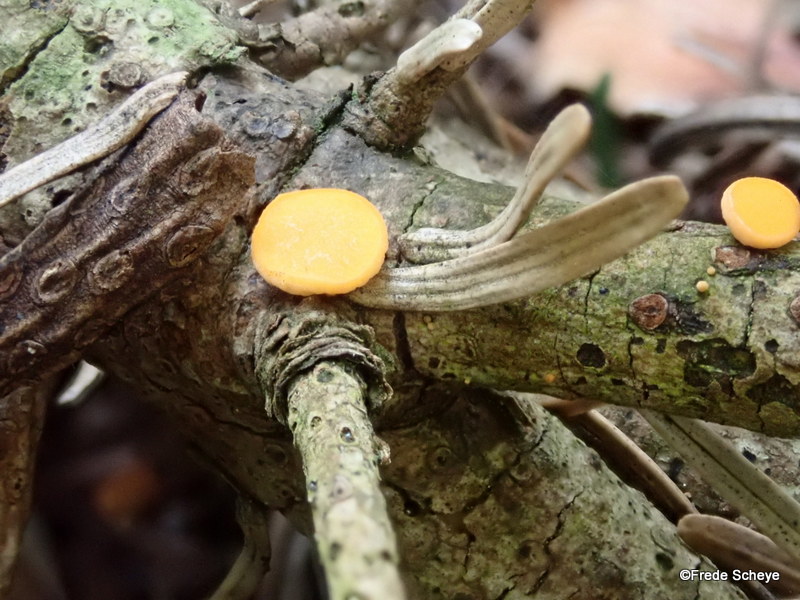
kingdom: Fungi
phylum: Ascomycota
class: Pezizomycetes
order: Pezizales
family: Sarcoscyphaceae
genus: Pithya
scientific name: Pithya vulgaris
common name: stor dukatbæger
